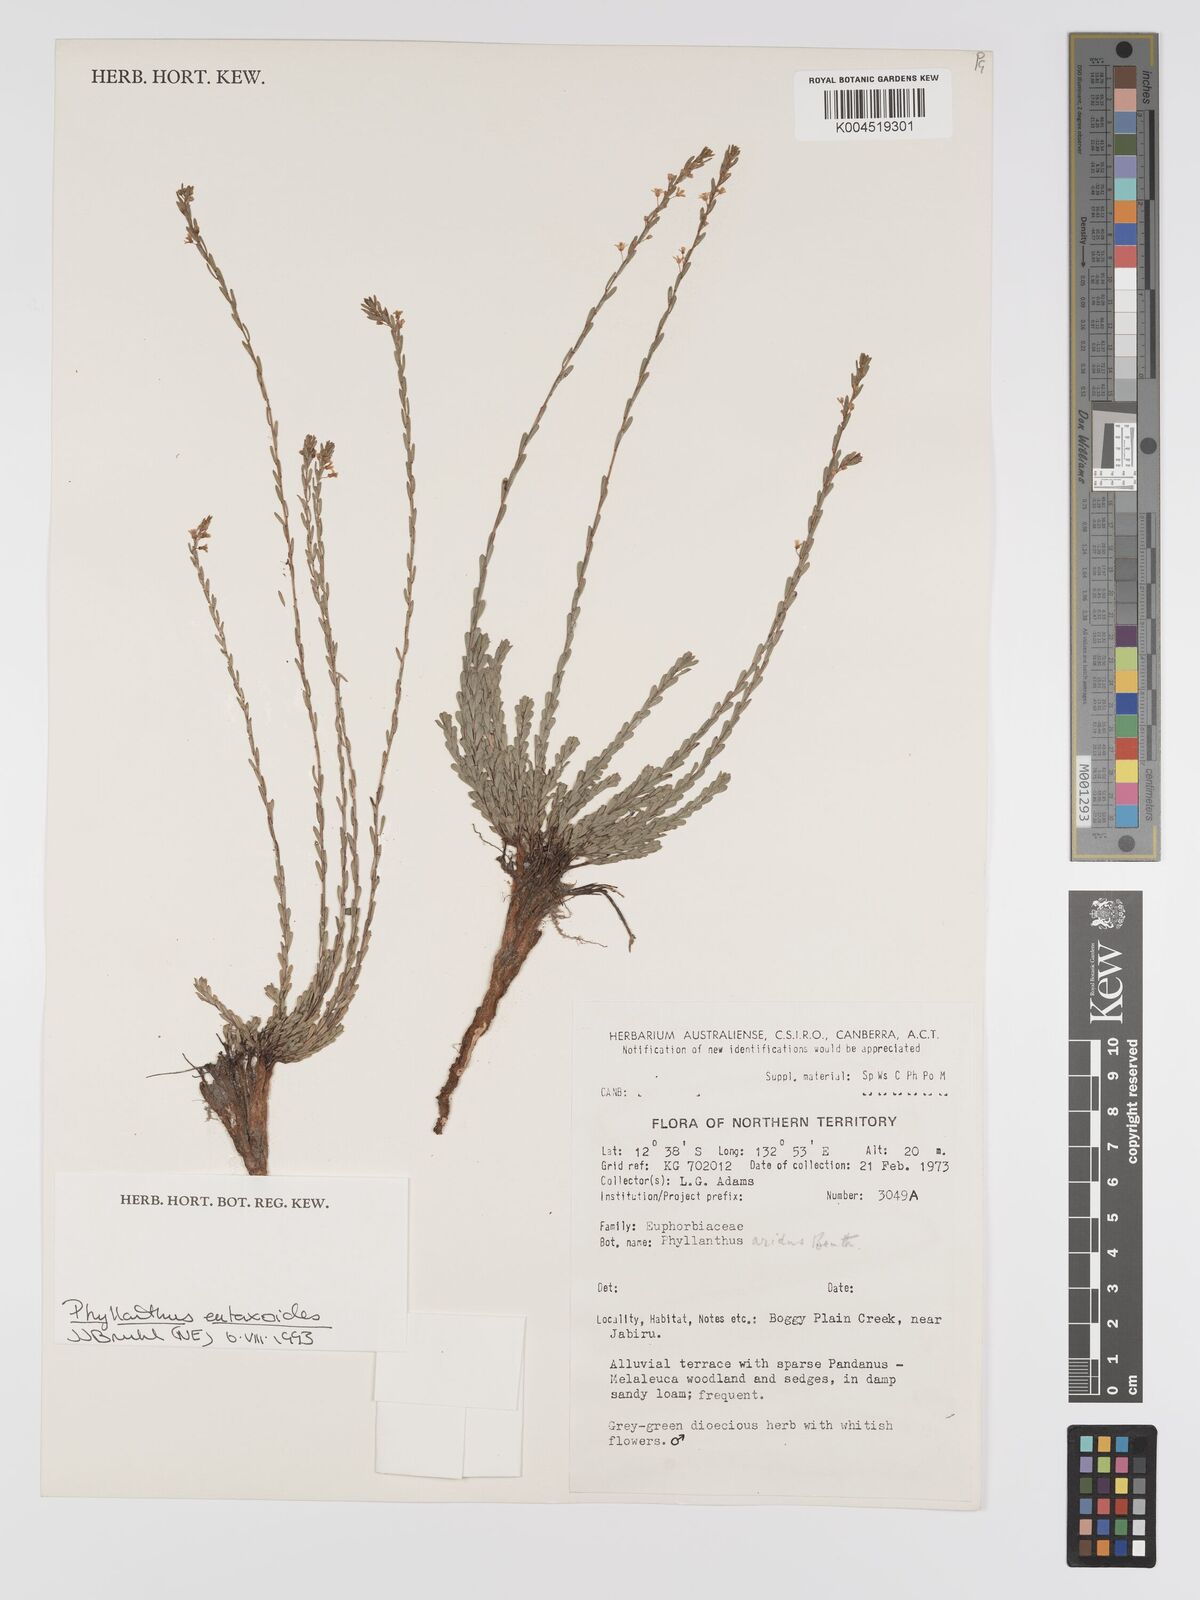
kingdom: Plantae
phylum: Tracheophyta
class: Magnoliopsida
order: Malpighiales
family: Phyllanthaceae
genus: Phyllanthus
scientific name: Phyllanthus eutaxioides
